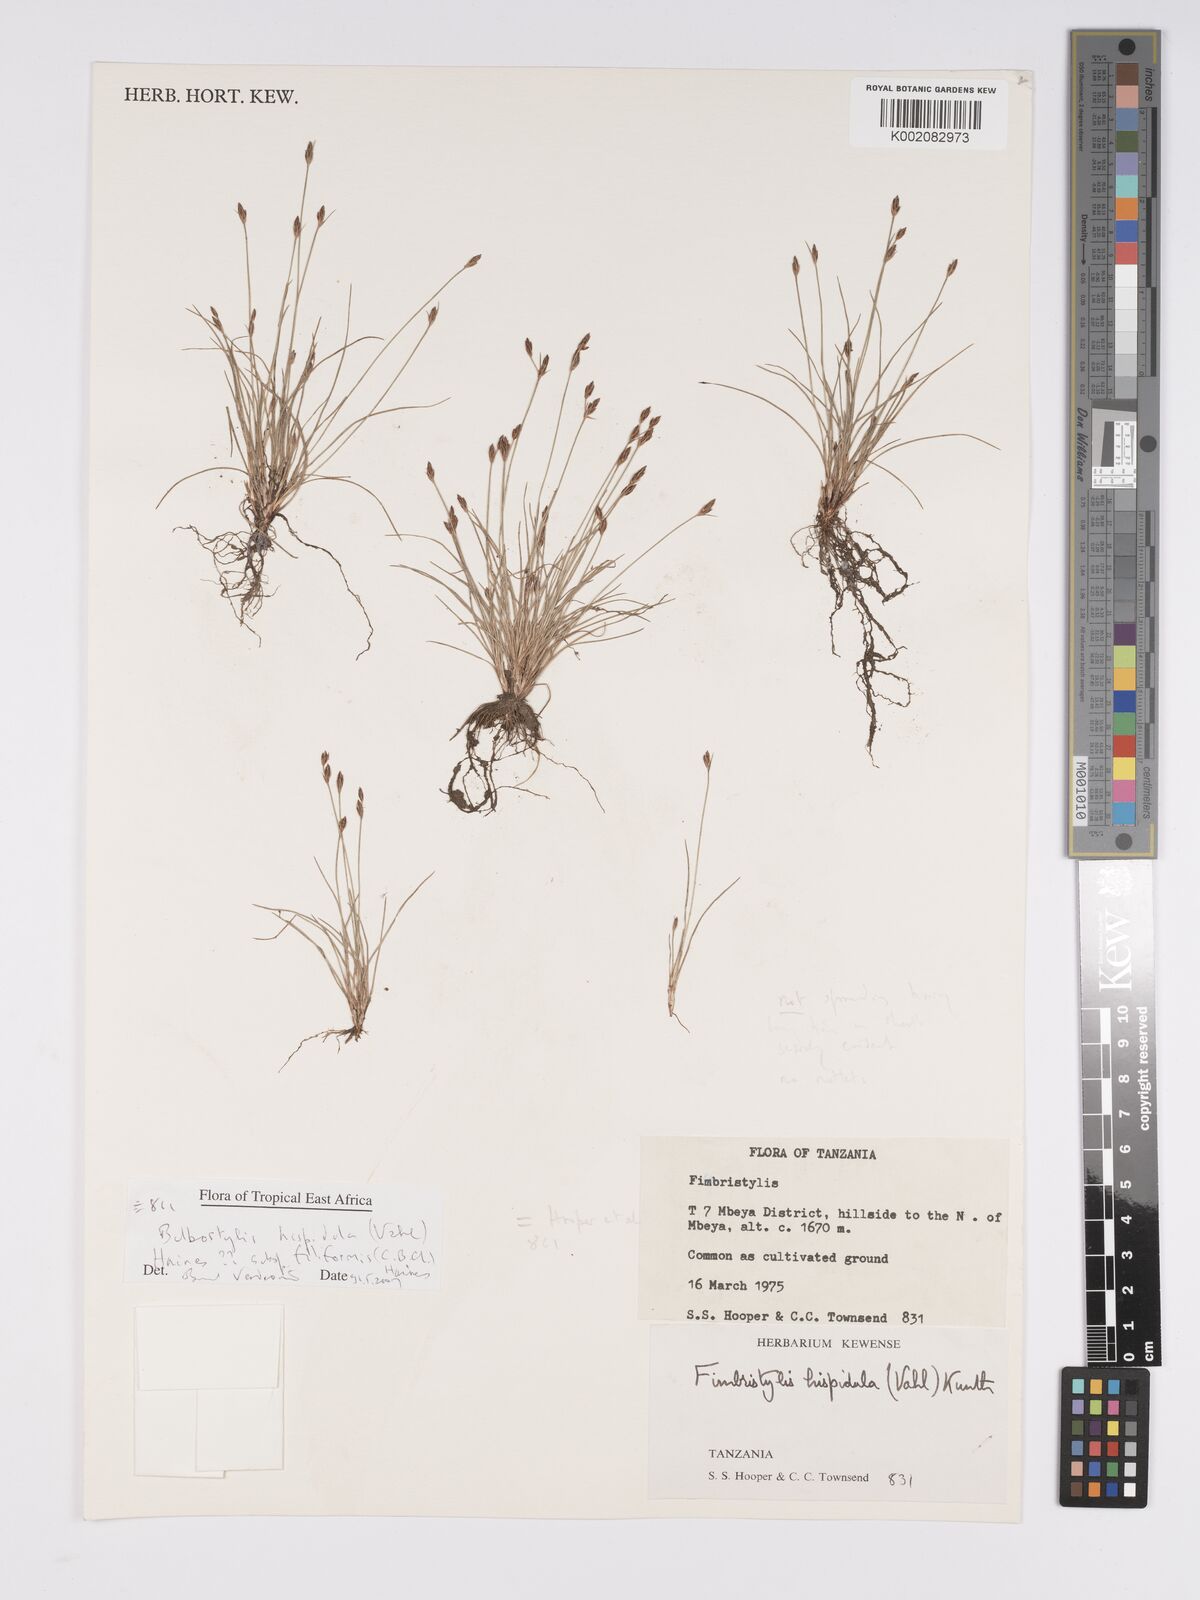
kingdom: Plantae
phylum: Tracheophyta
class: Liliopsida
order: Poales
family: Cyperaceae
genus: Bulbostylis
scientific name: Bulbostylis hispidula
